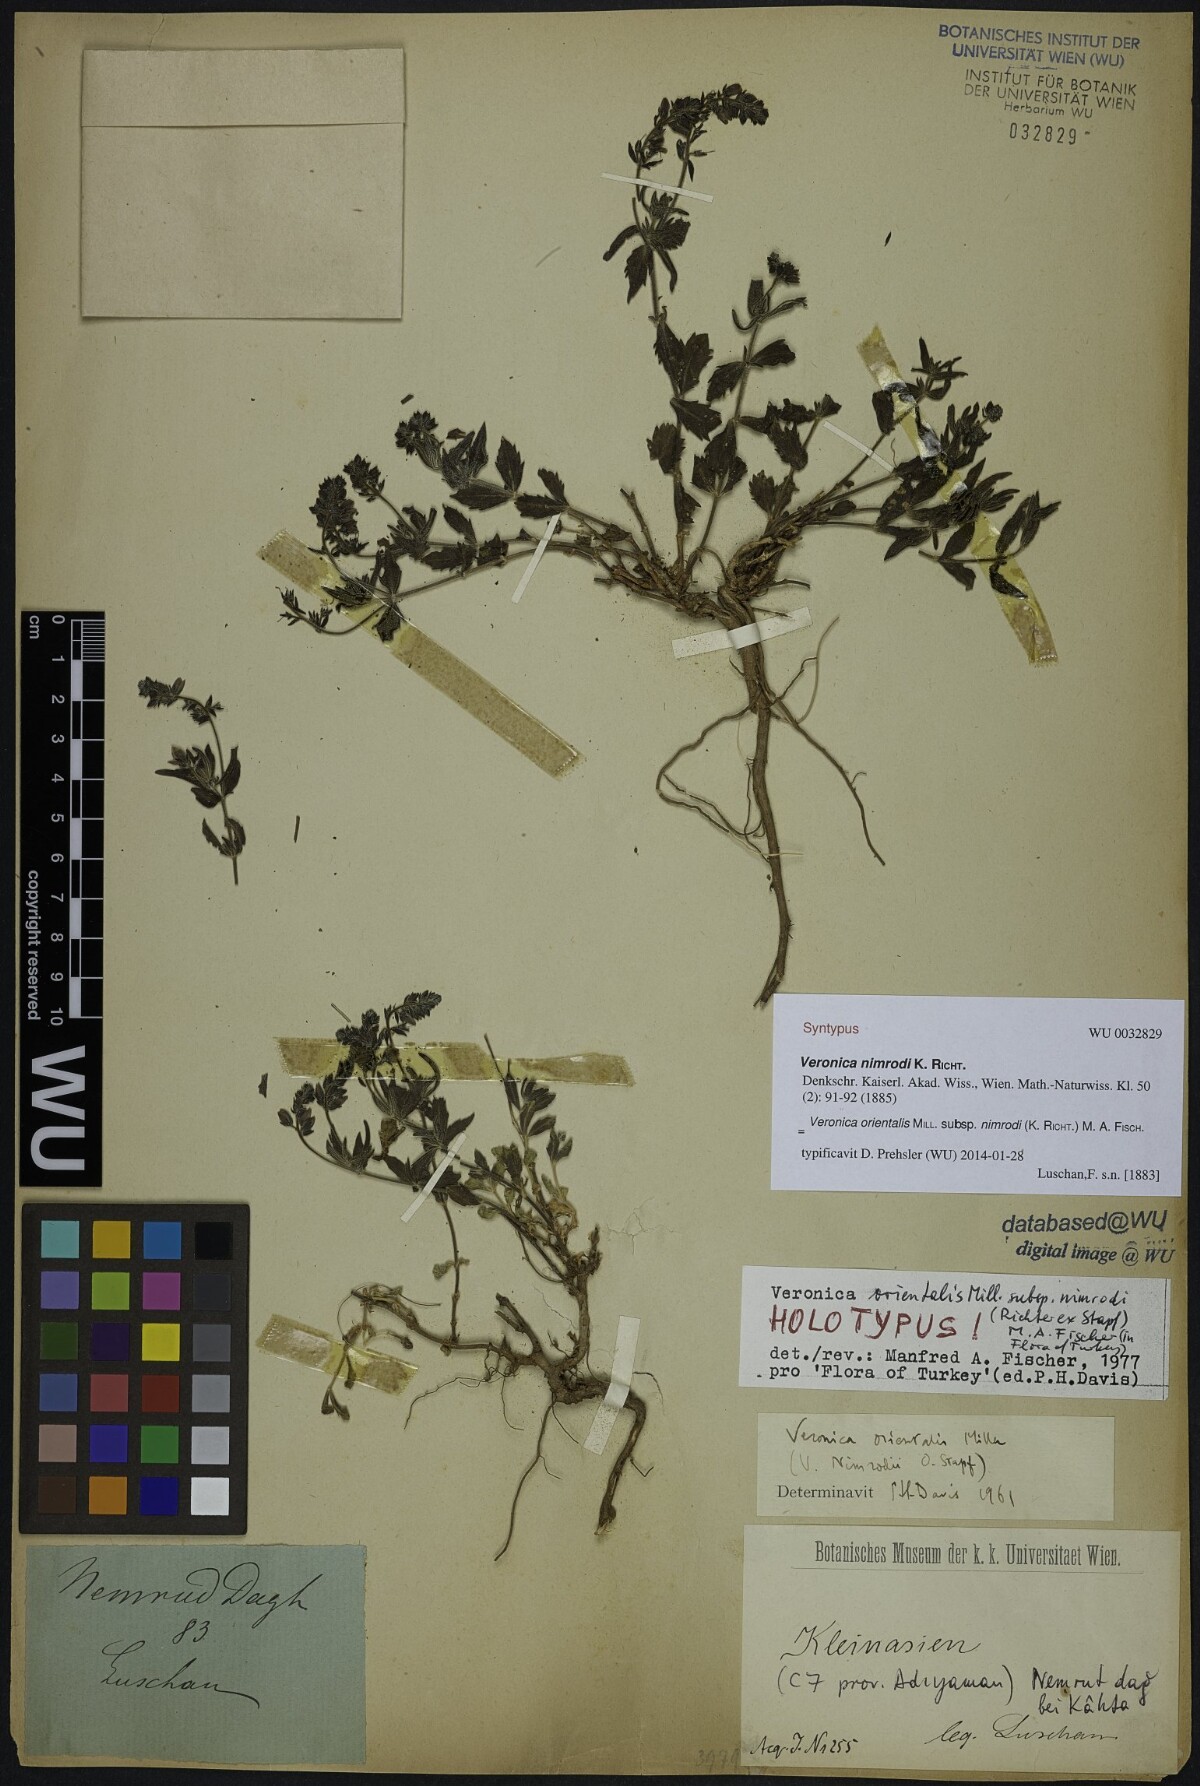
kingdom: Plantae
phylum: Tracheophyta
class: Magnoliopsida
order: Lamiales
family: Plantaginaceae
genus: Veronica
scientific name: Veronica orientalis
